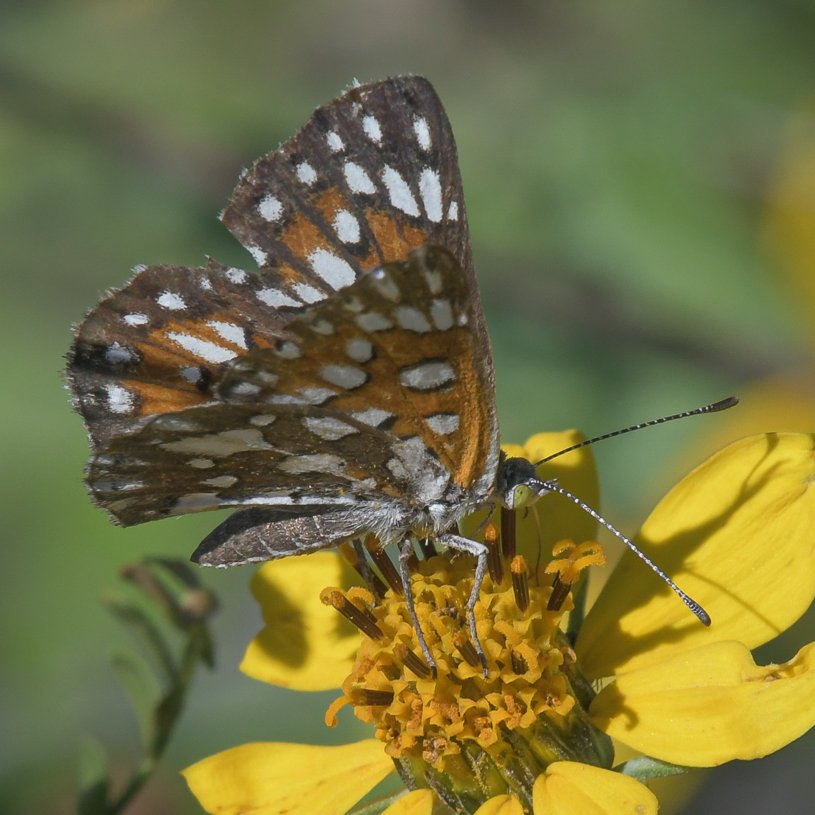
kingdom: Animalia
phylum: Arthropoda
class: Insecta
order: Lepidoptera
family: Riodinidae
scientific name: Riodinidae
